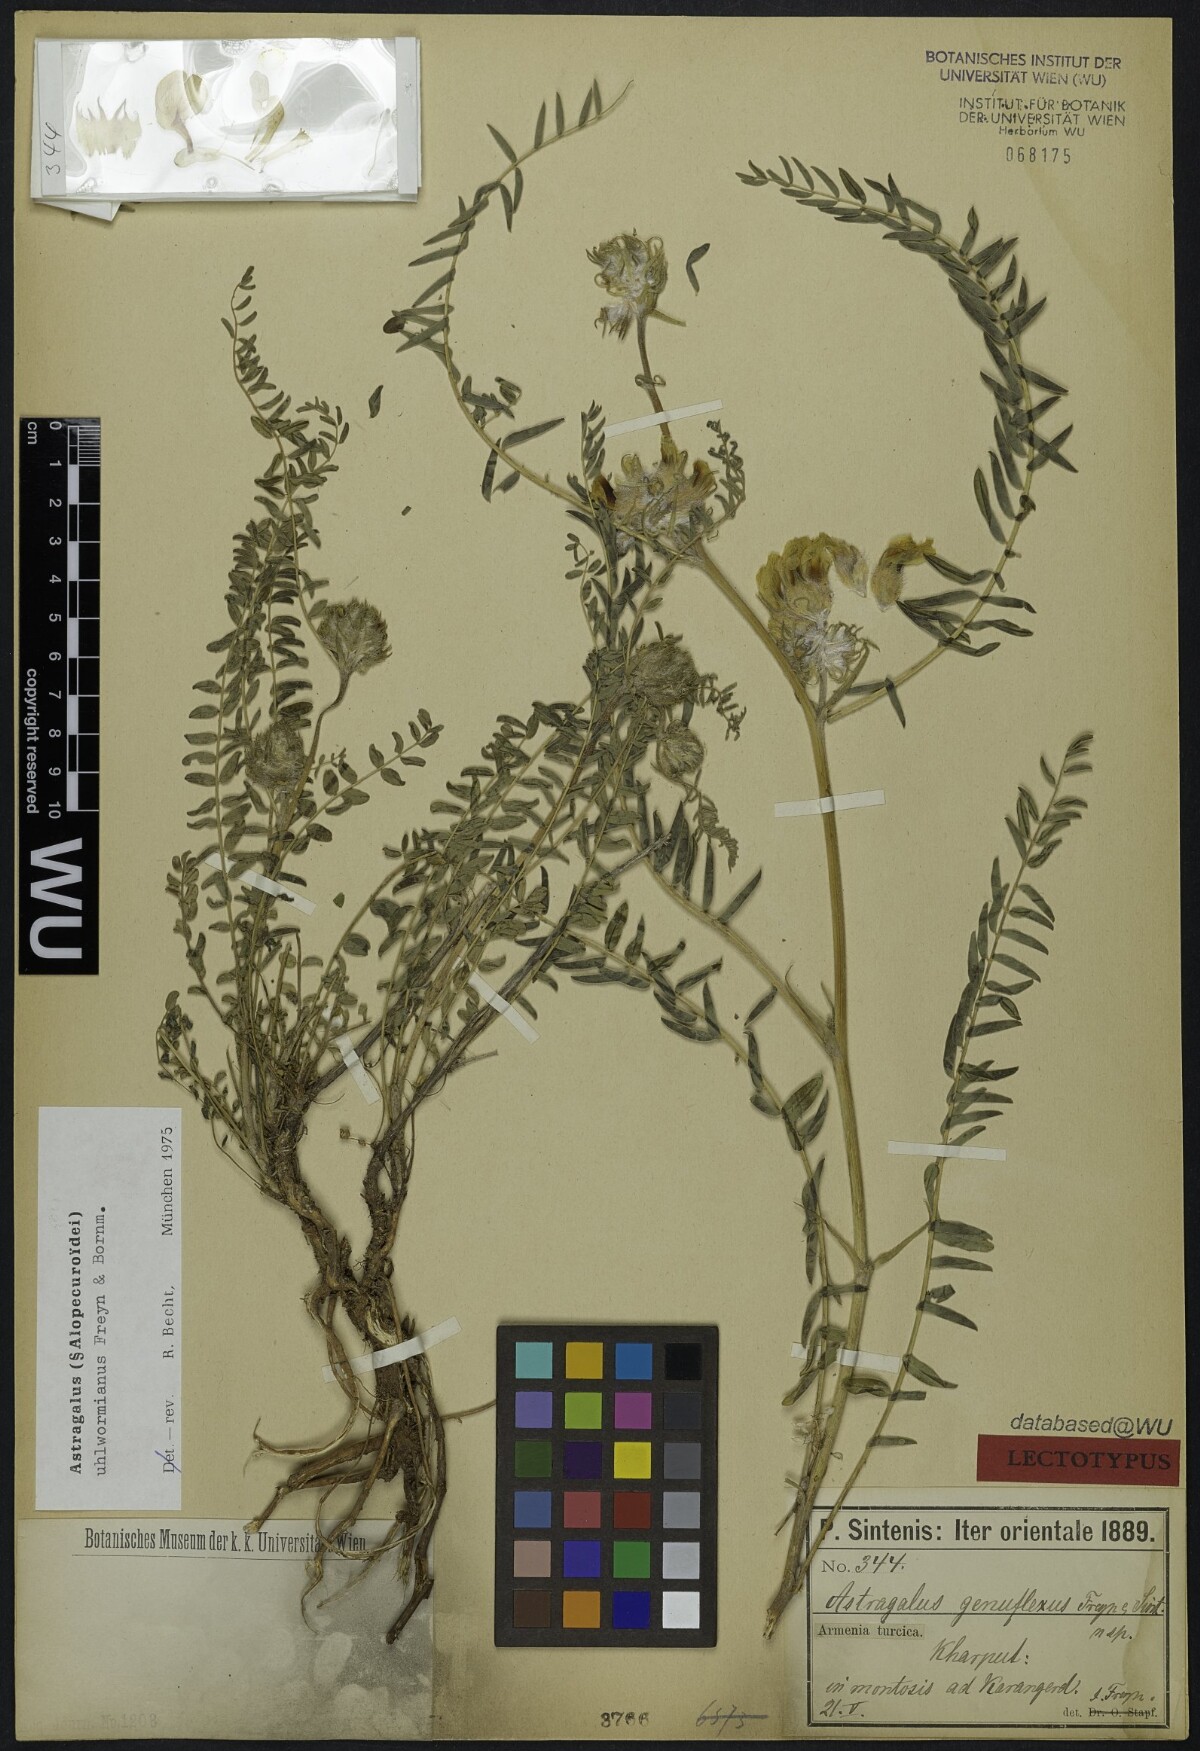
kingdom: Plantae
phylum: Tracheophyta
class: Magnoliopsida
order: Fabales
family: Fabaceae
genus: Astragalus
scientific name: Astragalus genuflexus
